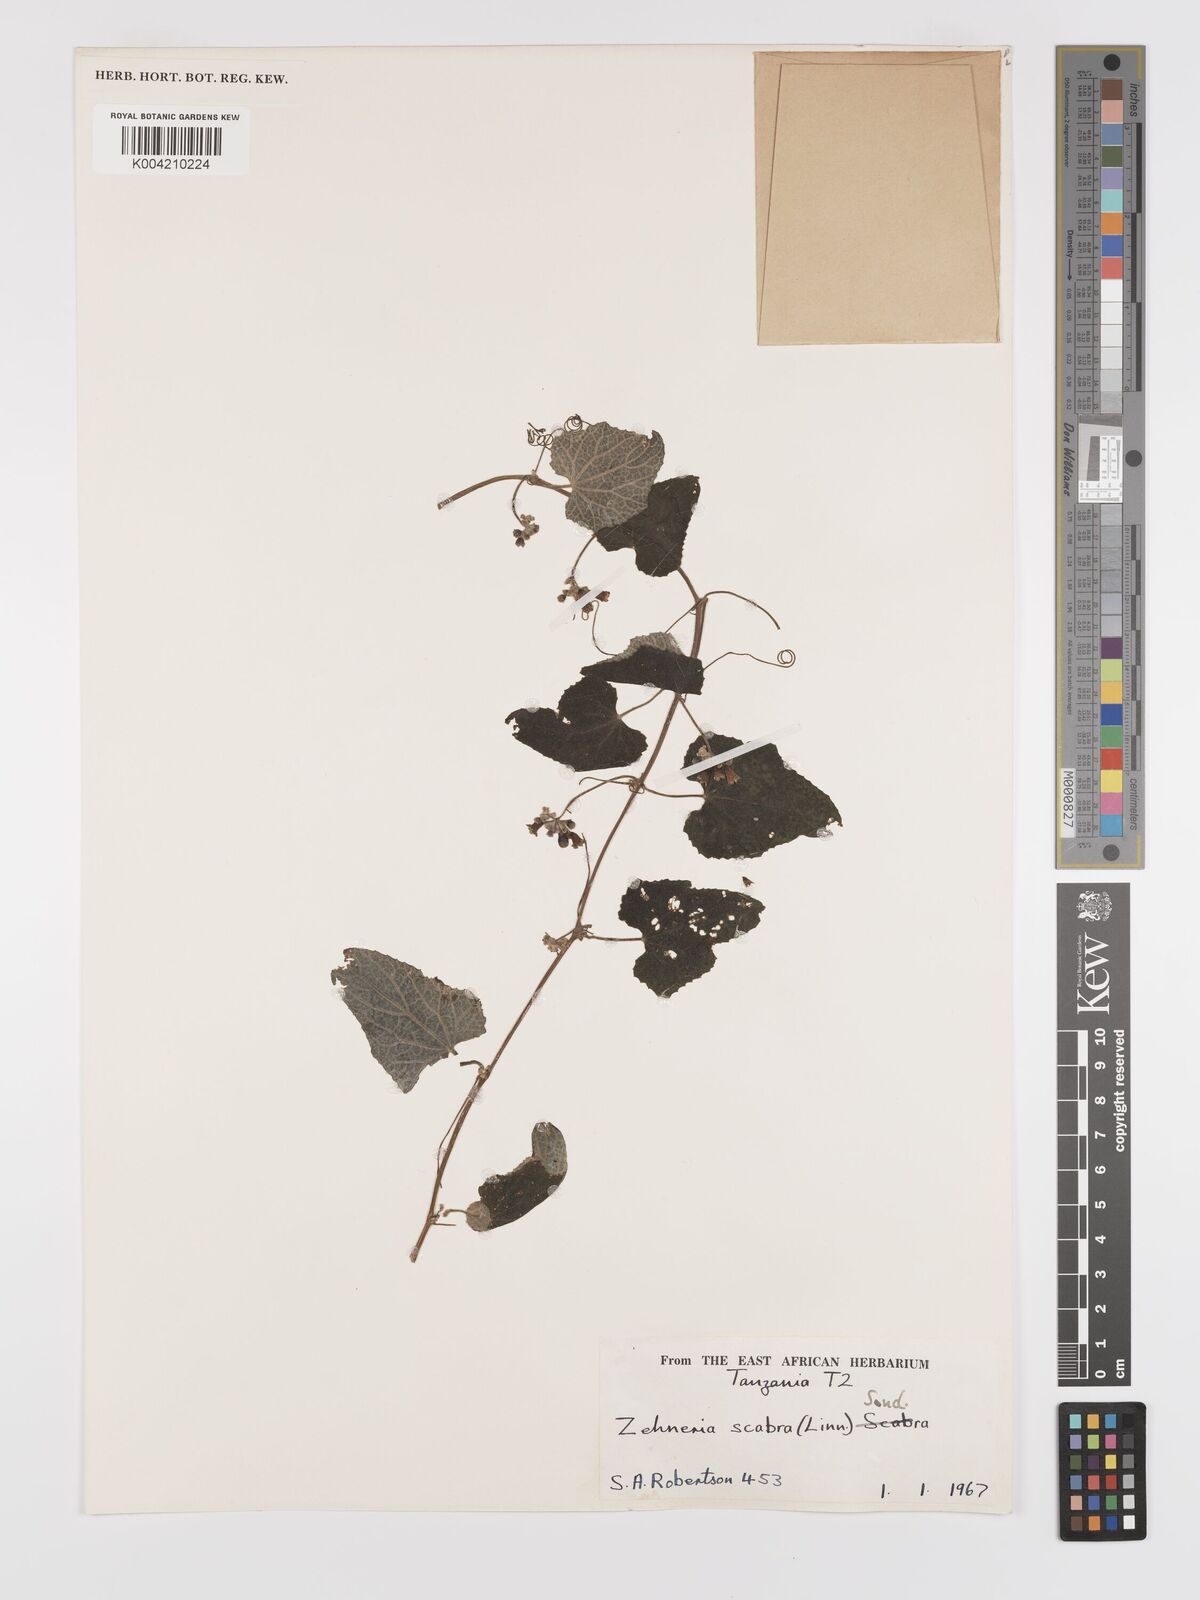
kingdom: Plantae
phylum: Tracheophyta
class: Magnoliopsida
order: Cucurbitales
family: Cucurbitaceae
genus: Zehneria
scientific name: Zehneria scabra
